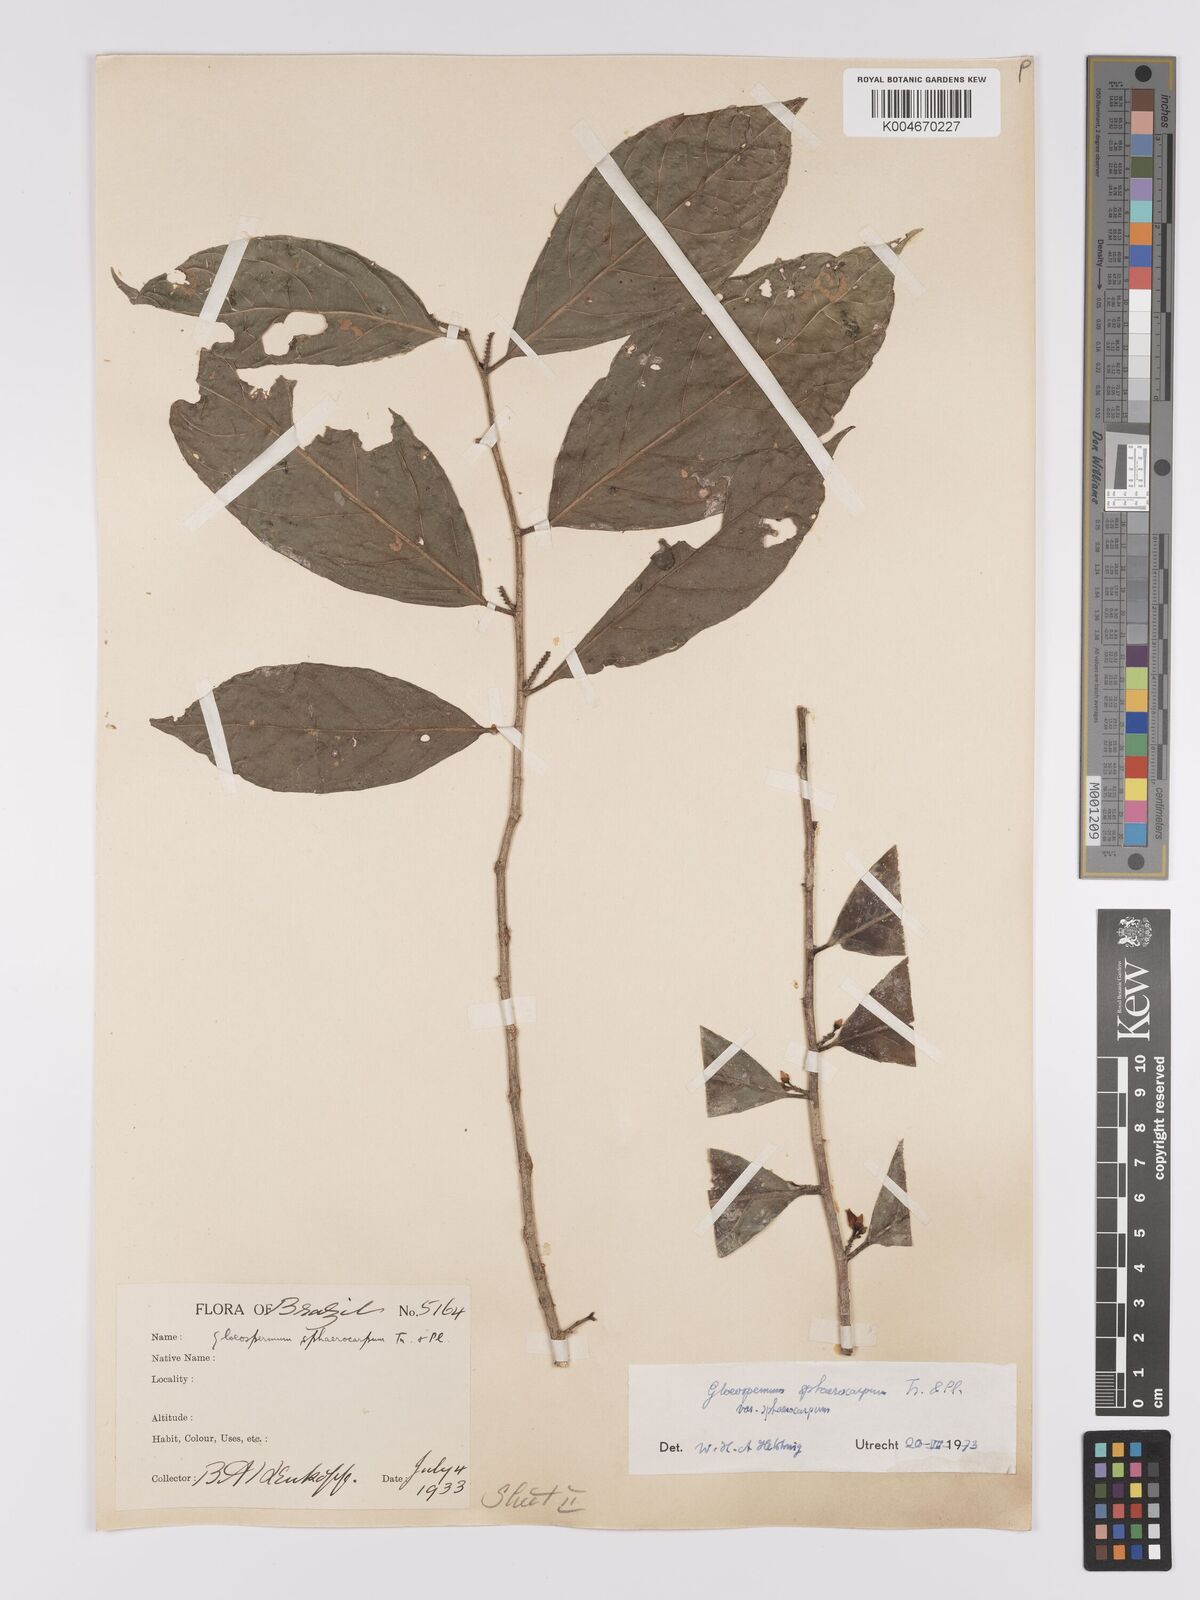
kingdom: Plantae
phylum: Tracheophyta
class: Magnoliopsida
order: Malpighiales
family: Violaceae
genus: Gloeospermum
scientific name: Gloeospermum sphaerocarpum
